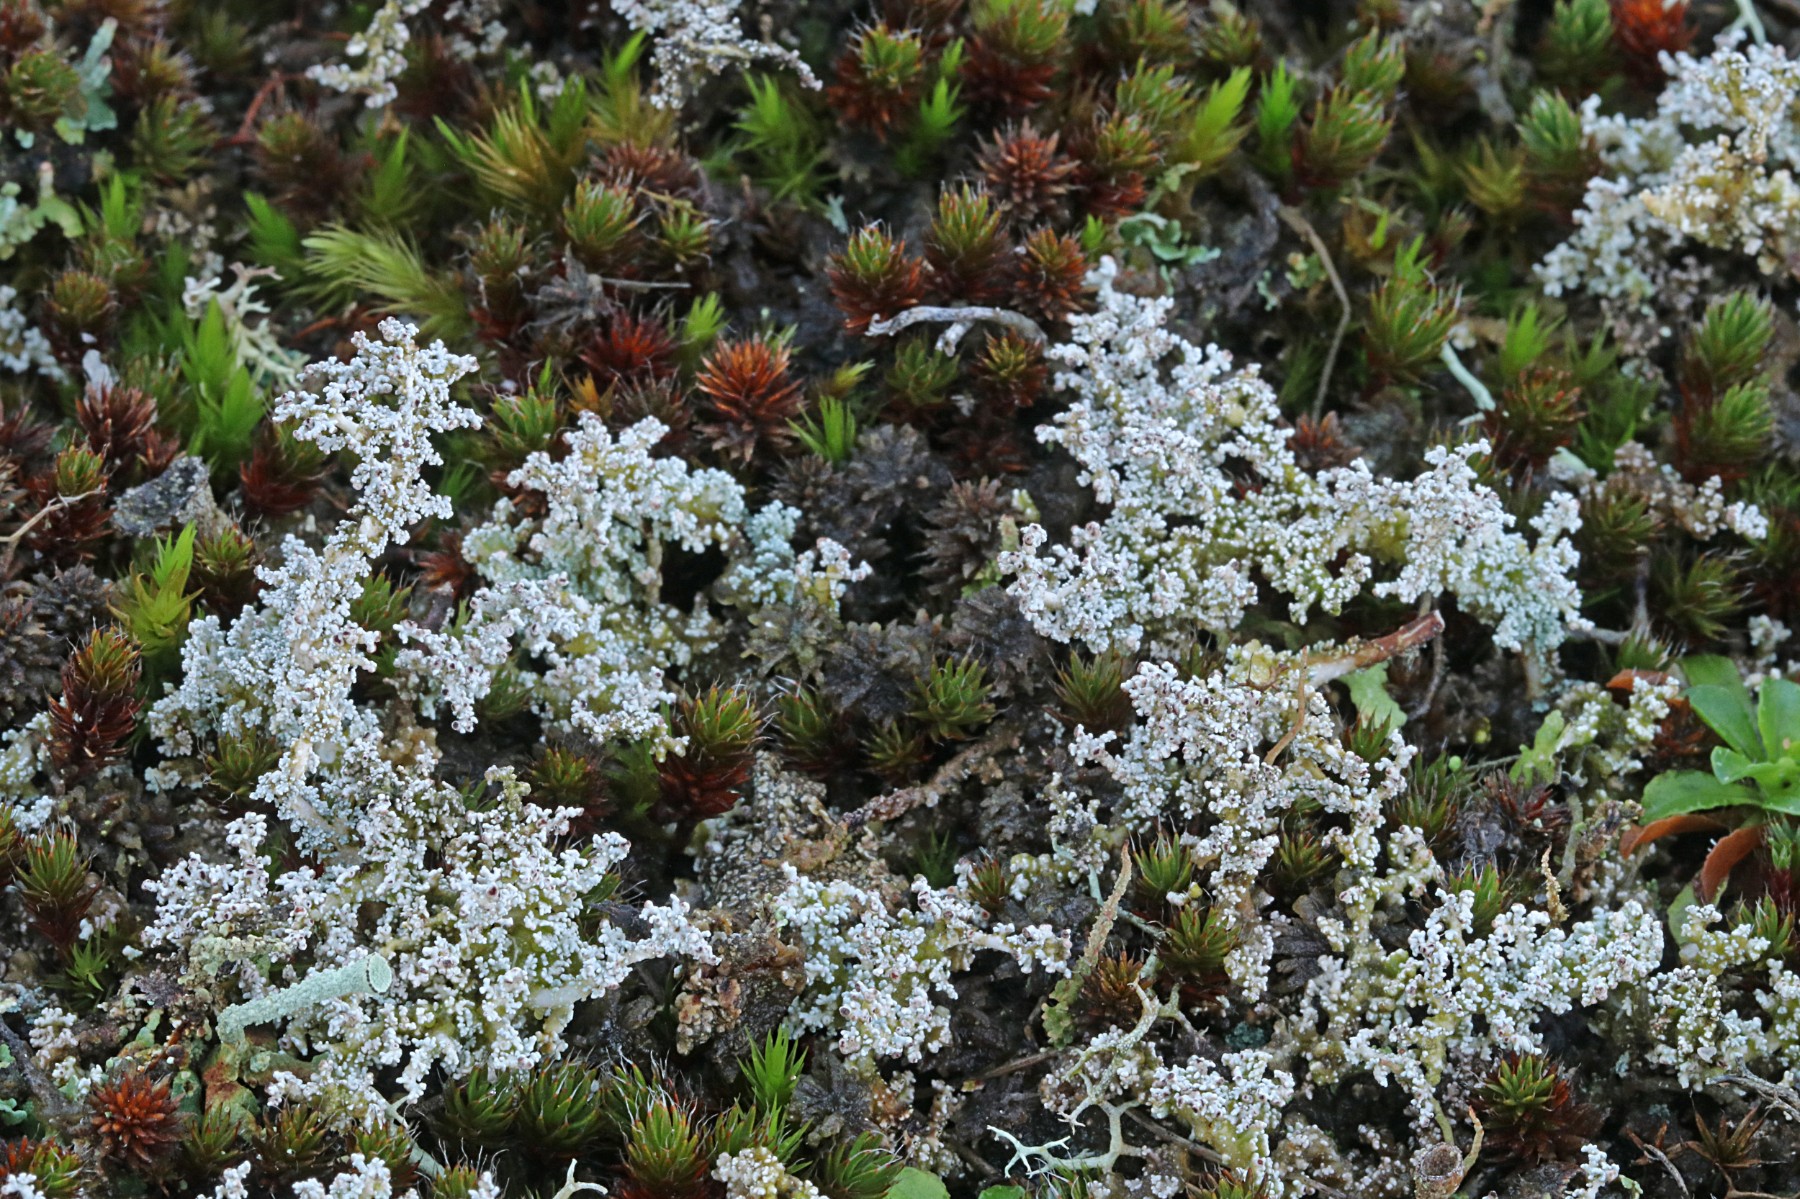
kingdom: Fungi
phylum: Ascomycota
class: Lecanoromycetes
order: Lecanorales
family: Stereocaulaceae
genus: Stereocaulon
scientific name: Stereocaulon saxatile
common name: klit-korallav
